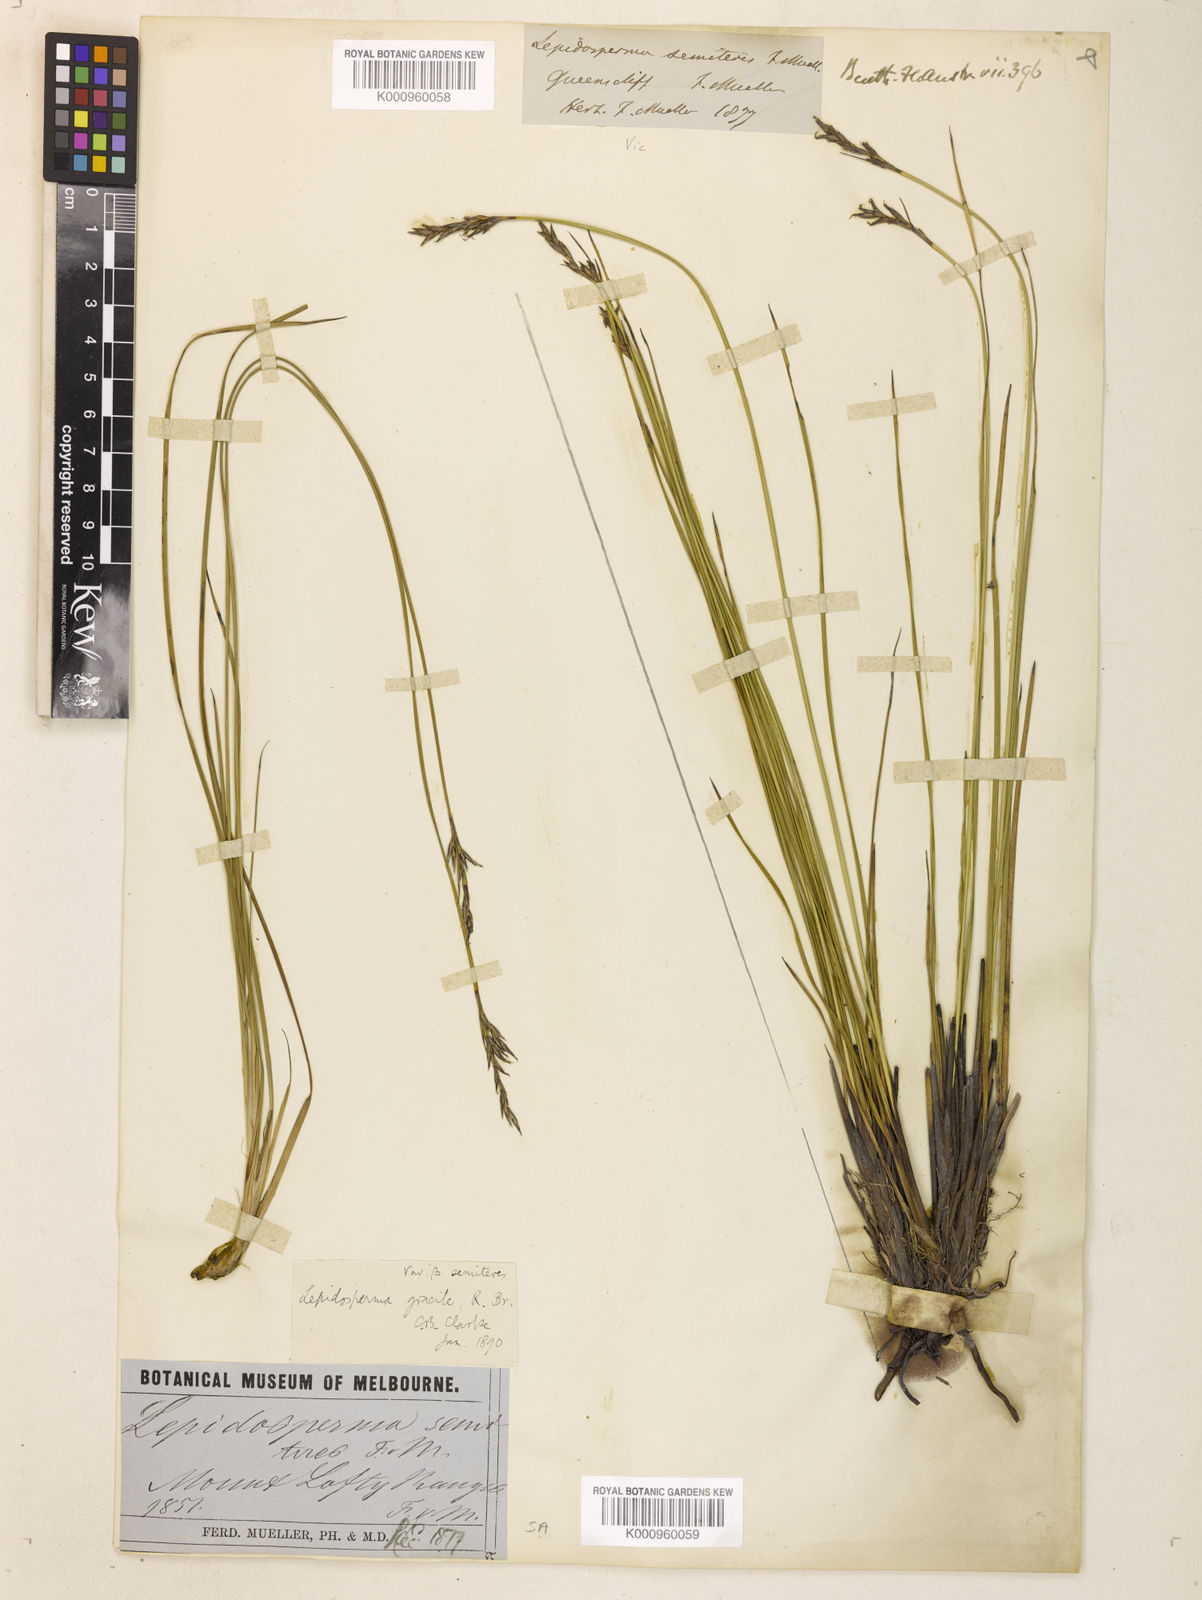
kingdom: Plantae
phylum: Tracheophyta
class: Liliopsida
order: Poales
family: Cyperaceae
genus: Lepidosperma
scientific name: Lepidosperma semiteres
